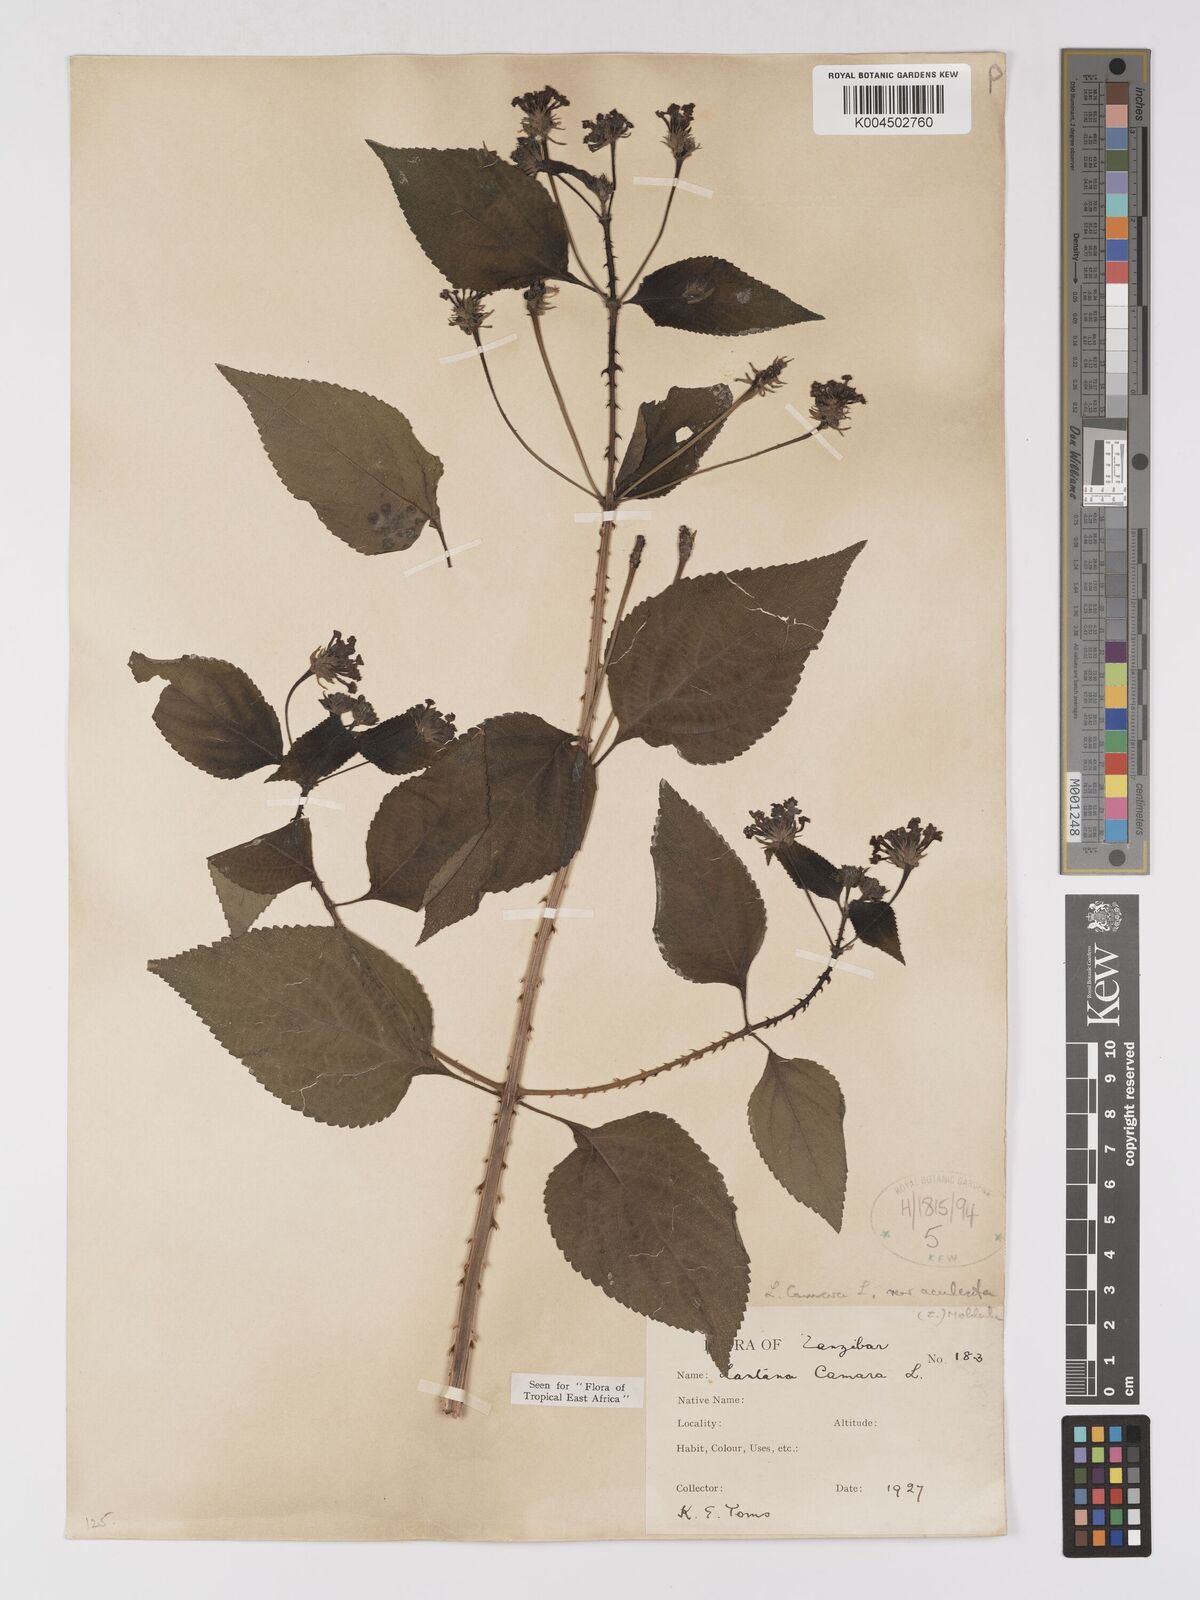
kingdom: Plantae
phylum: Tracheophyta
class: Magnoliopsida
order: Lamiales
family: Verbenaceae
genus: Lantana
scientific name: Lantana camara
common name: Lantana
